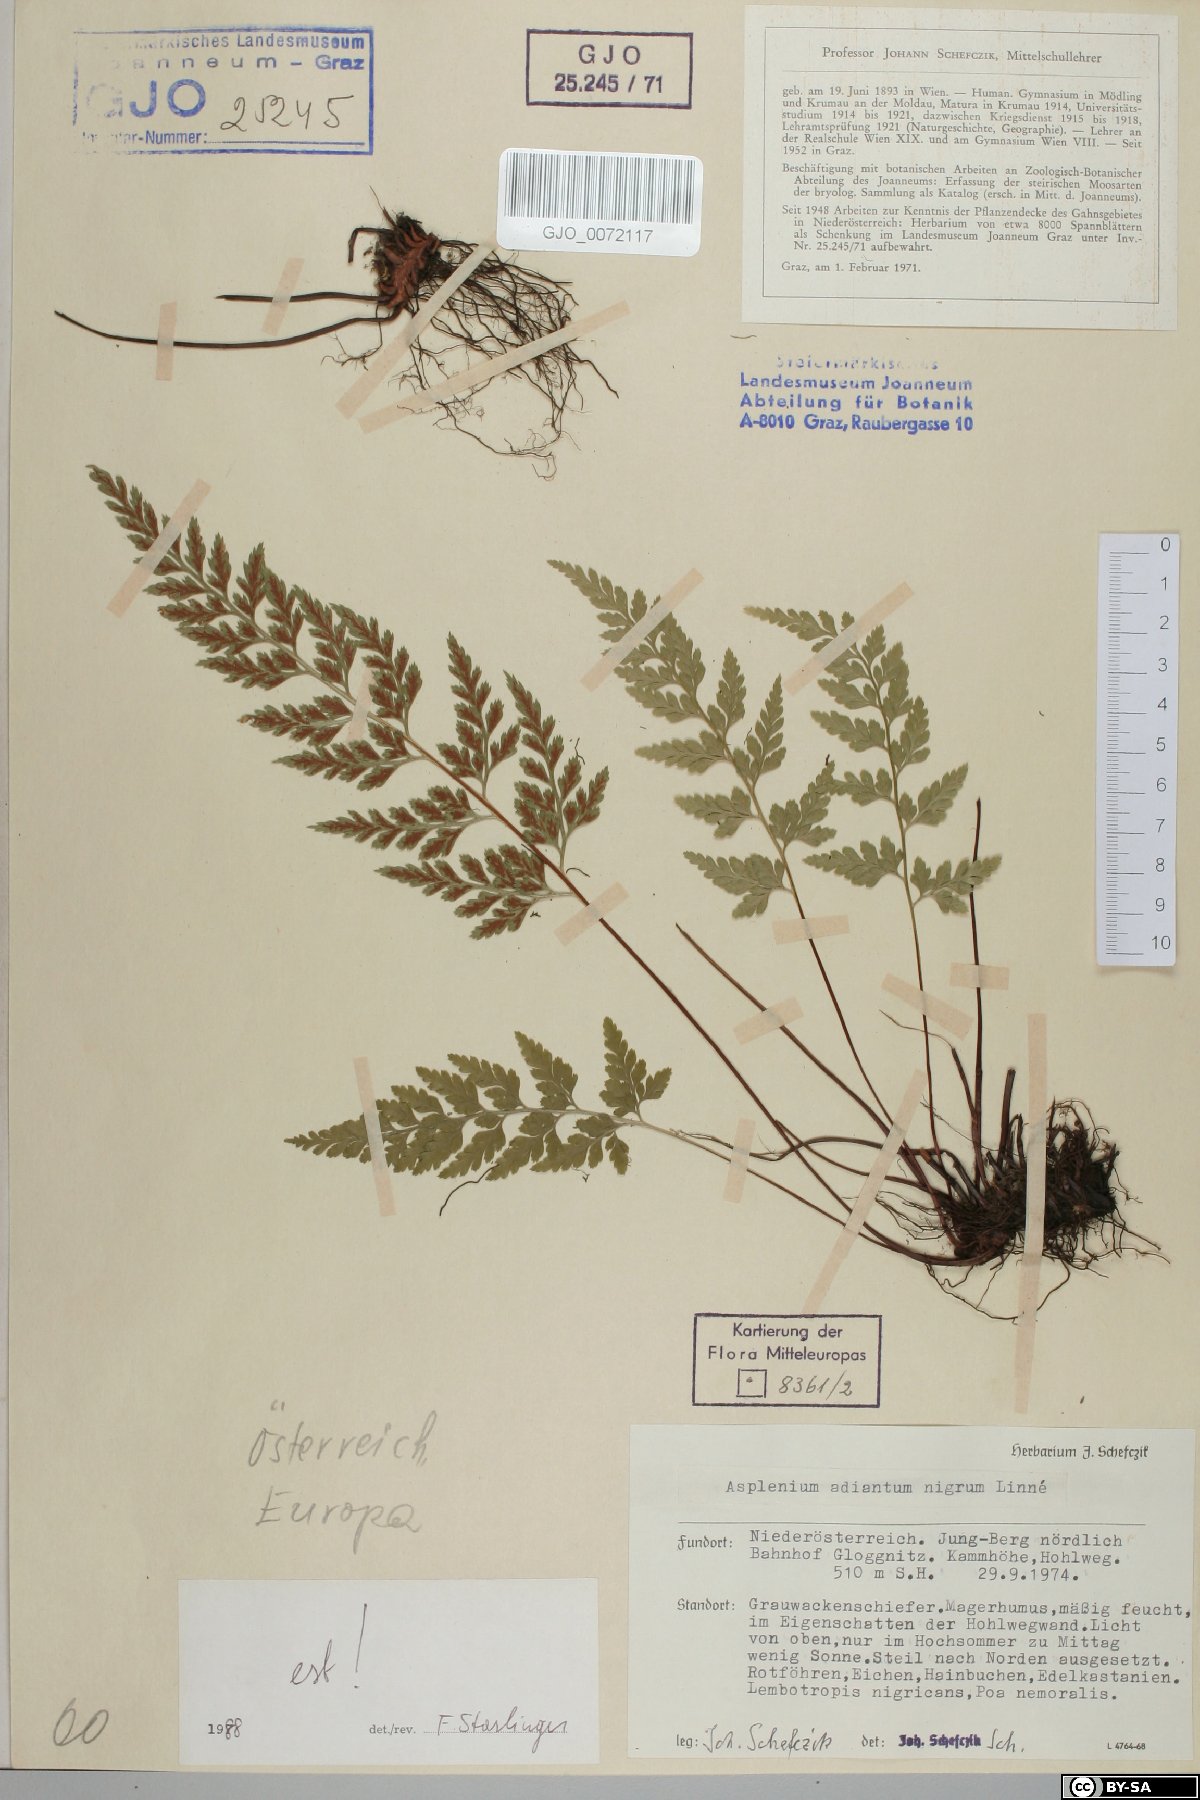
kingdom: Plantae
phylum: Tracheophyta
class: Polypodiopsida
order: Polypodiales
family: Aspleniaceae
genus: Asplenium
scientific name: Asplenium adiantum-nigrum
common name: Black spleenwort
